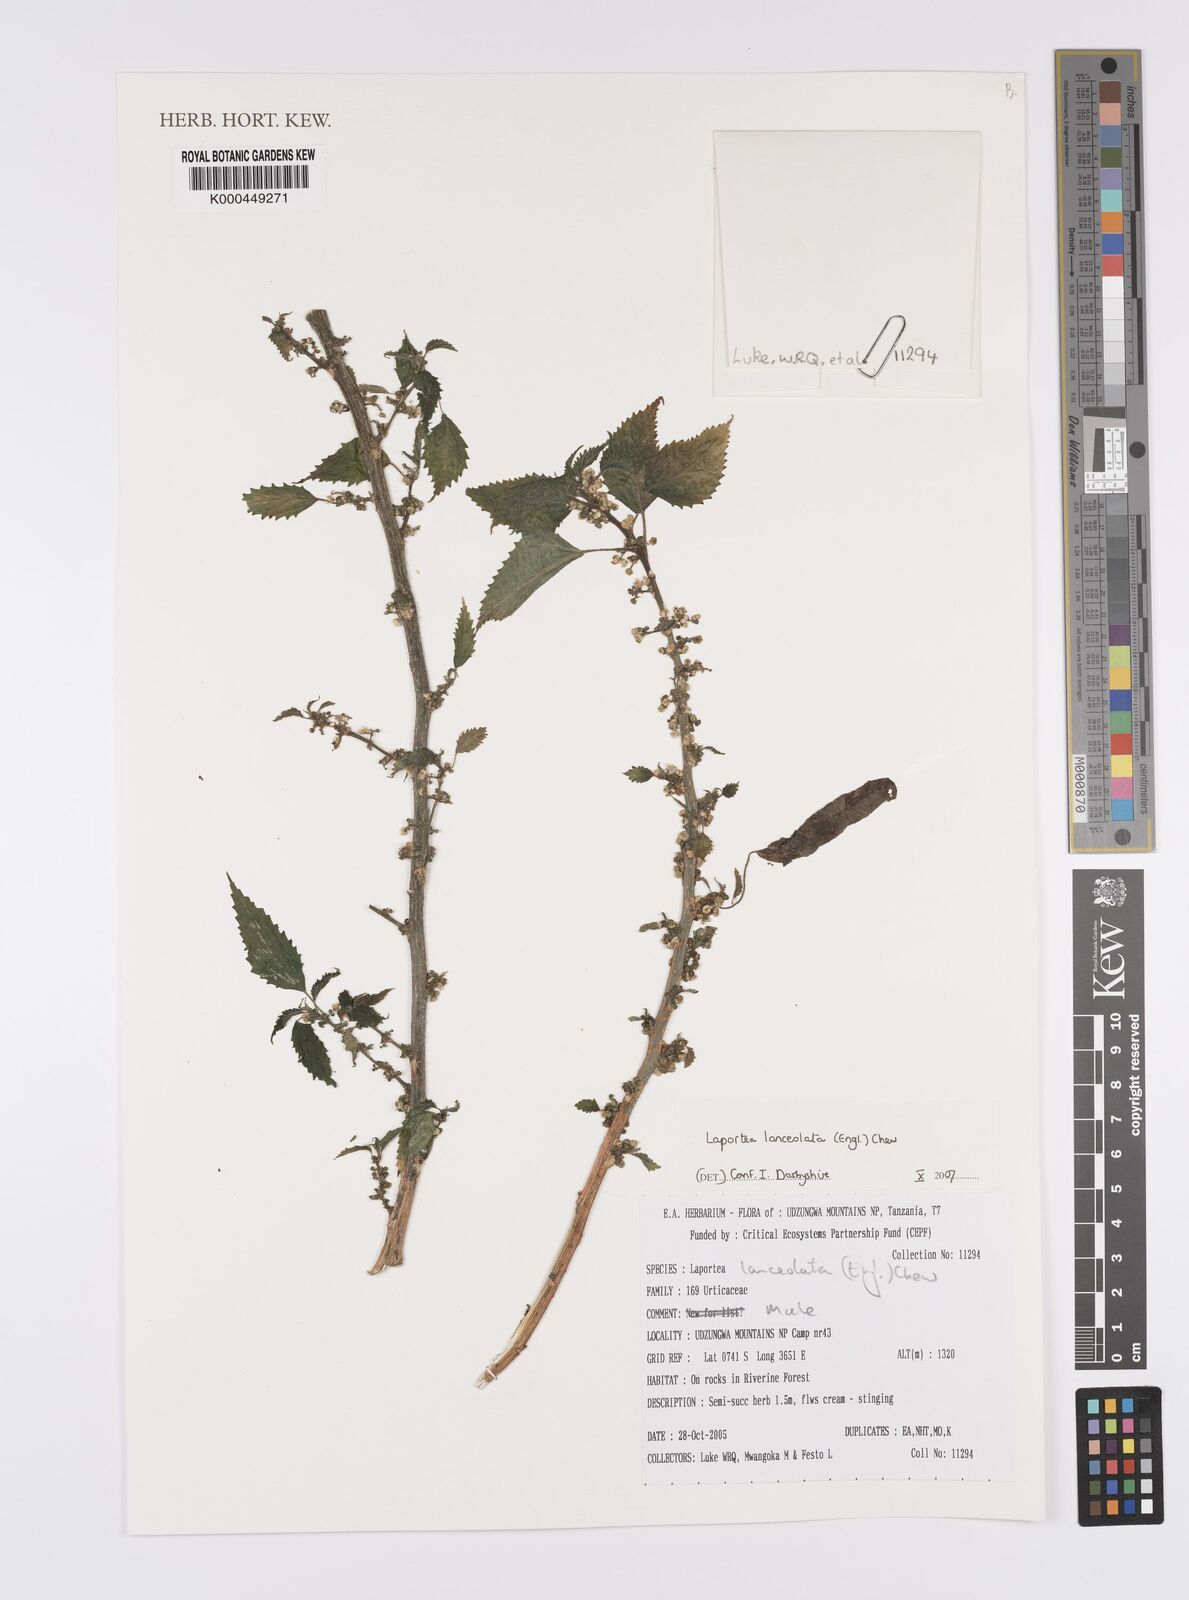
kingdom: Plantae
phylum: Tracheophyta
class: Magnoliopsida
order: Rosales
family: Urticaceae
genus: Laportea
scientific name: Laportea lanceolata
